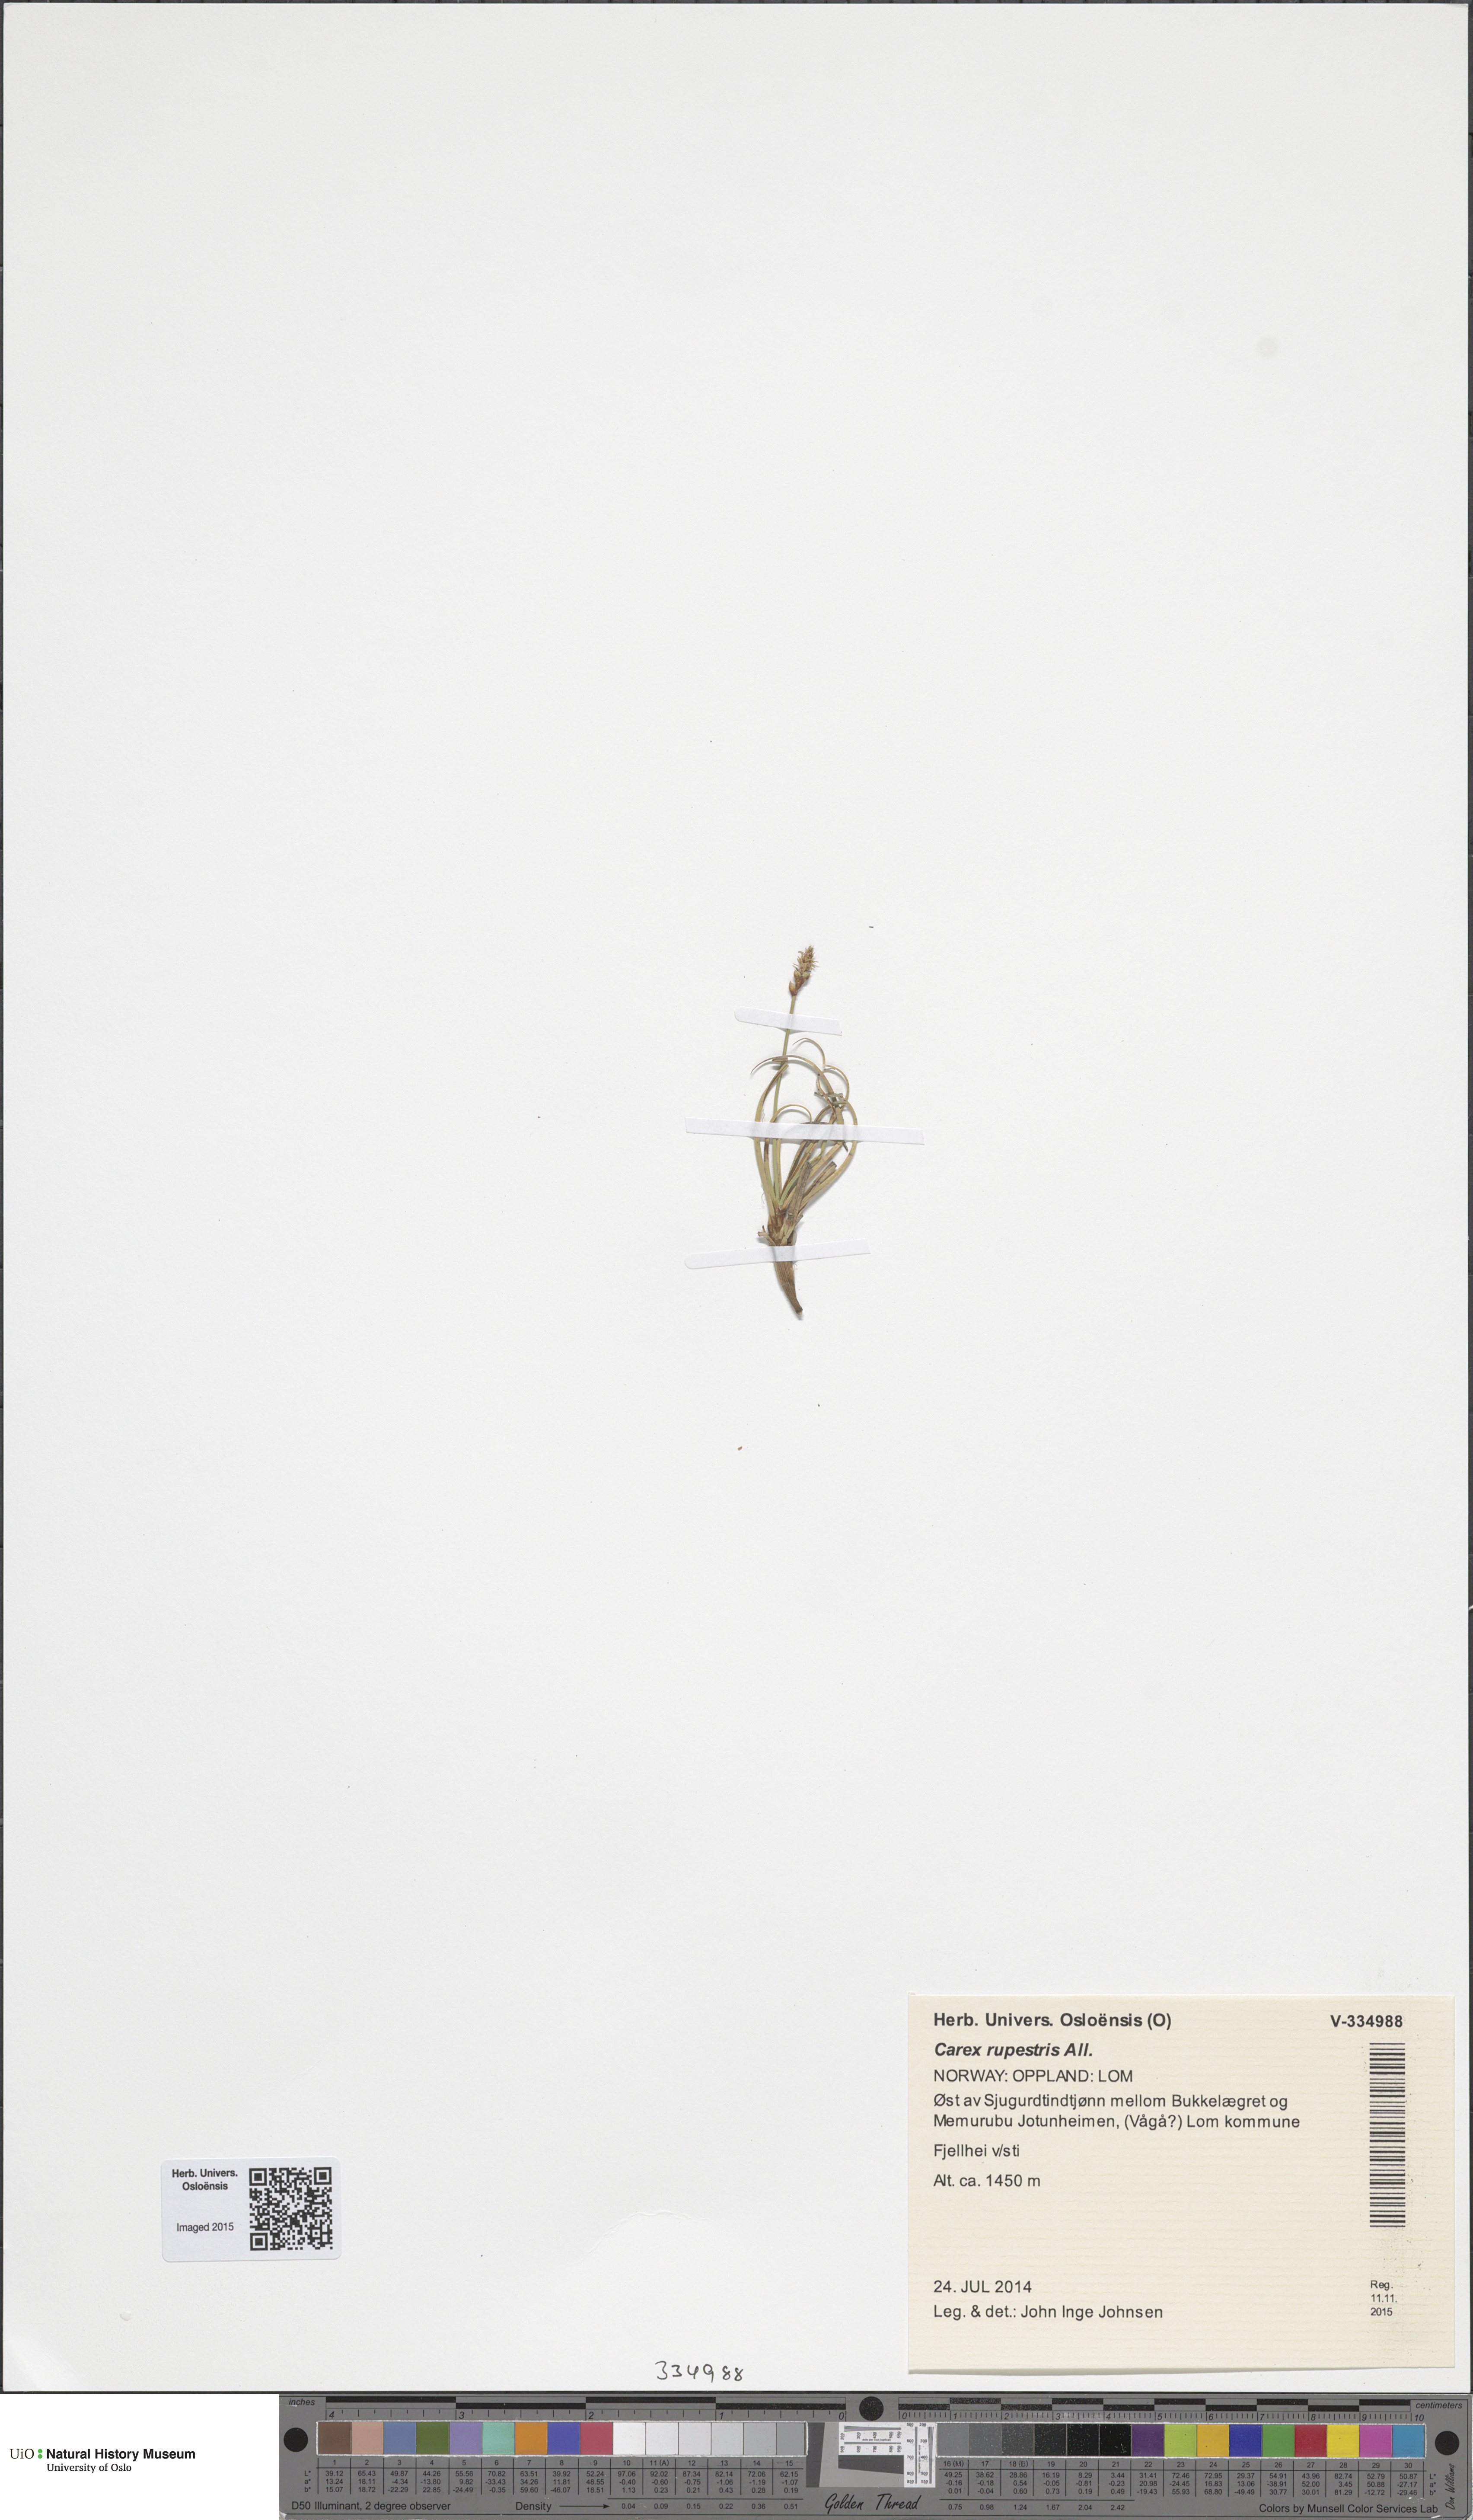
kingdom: Plantae
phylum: Tracheophyta
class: Liliopsida
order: Poales
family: Cyperaceae
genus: Carex
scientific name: Carex rupestris
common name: Rock sedge
